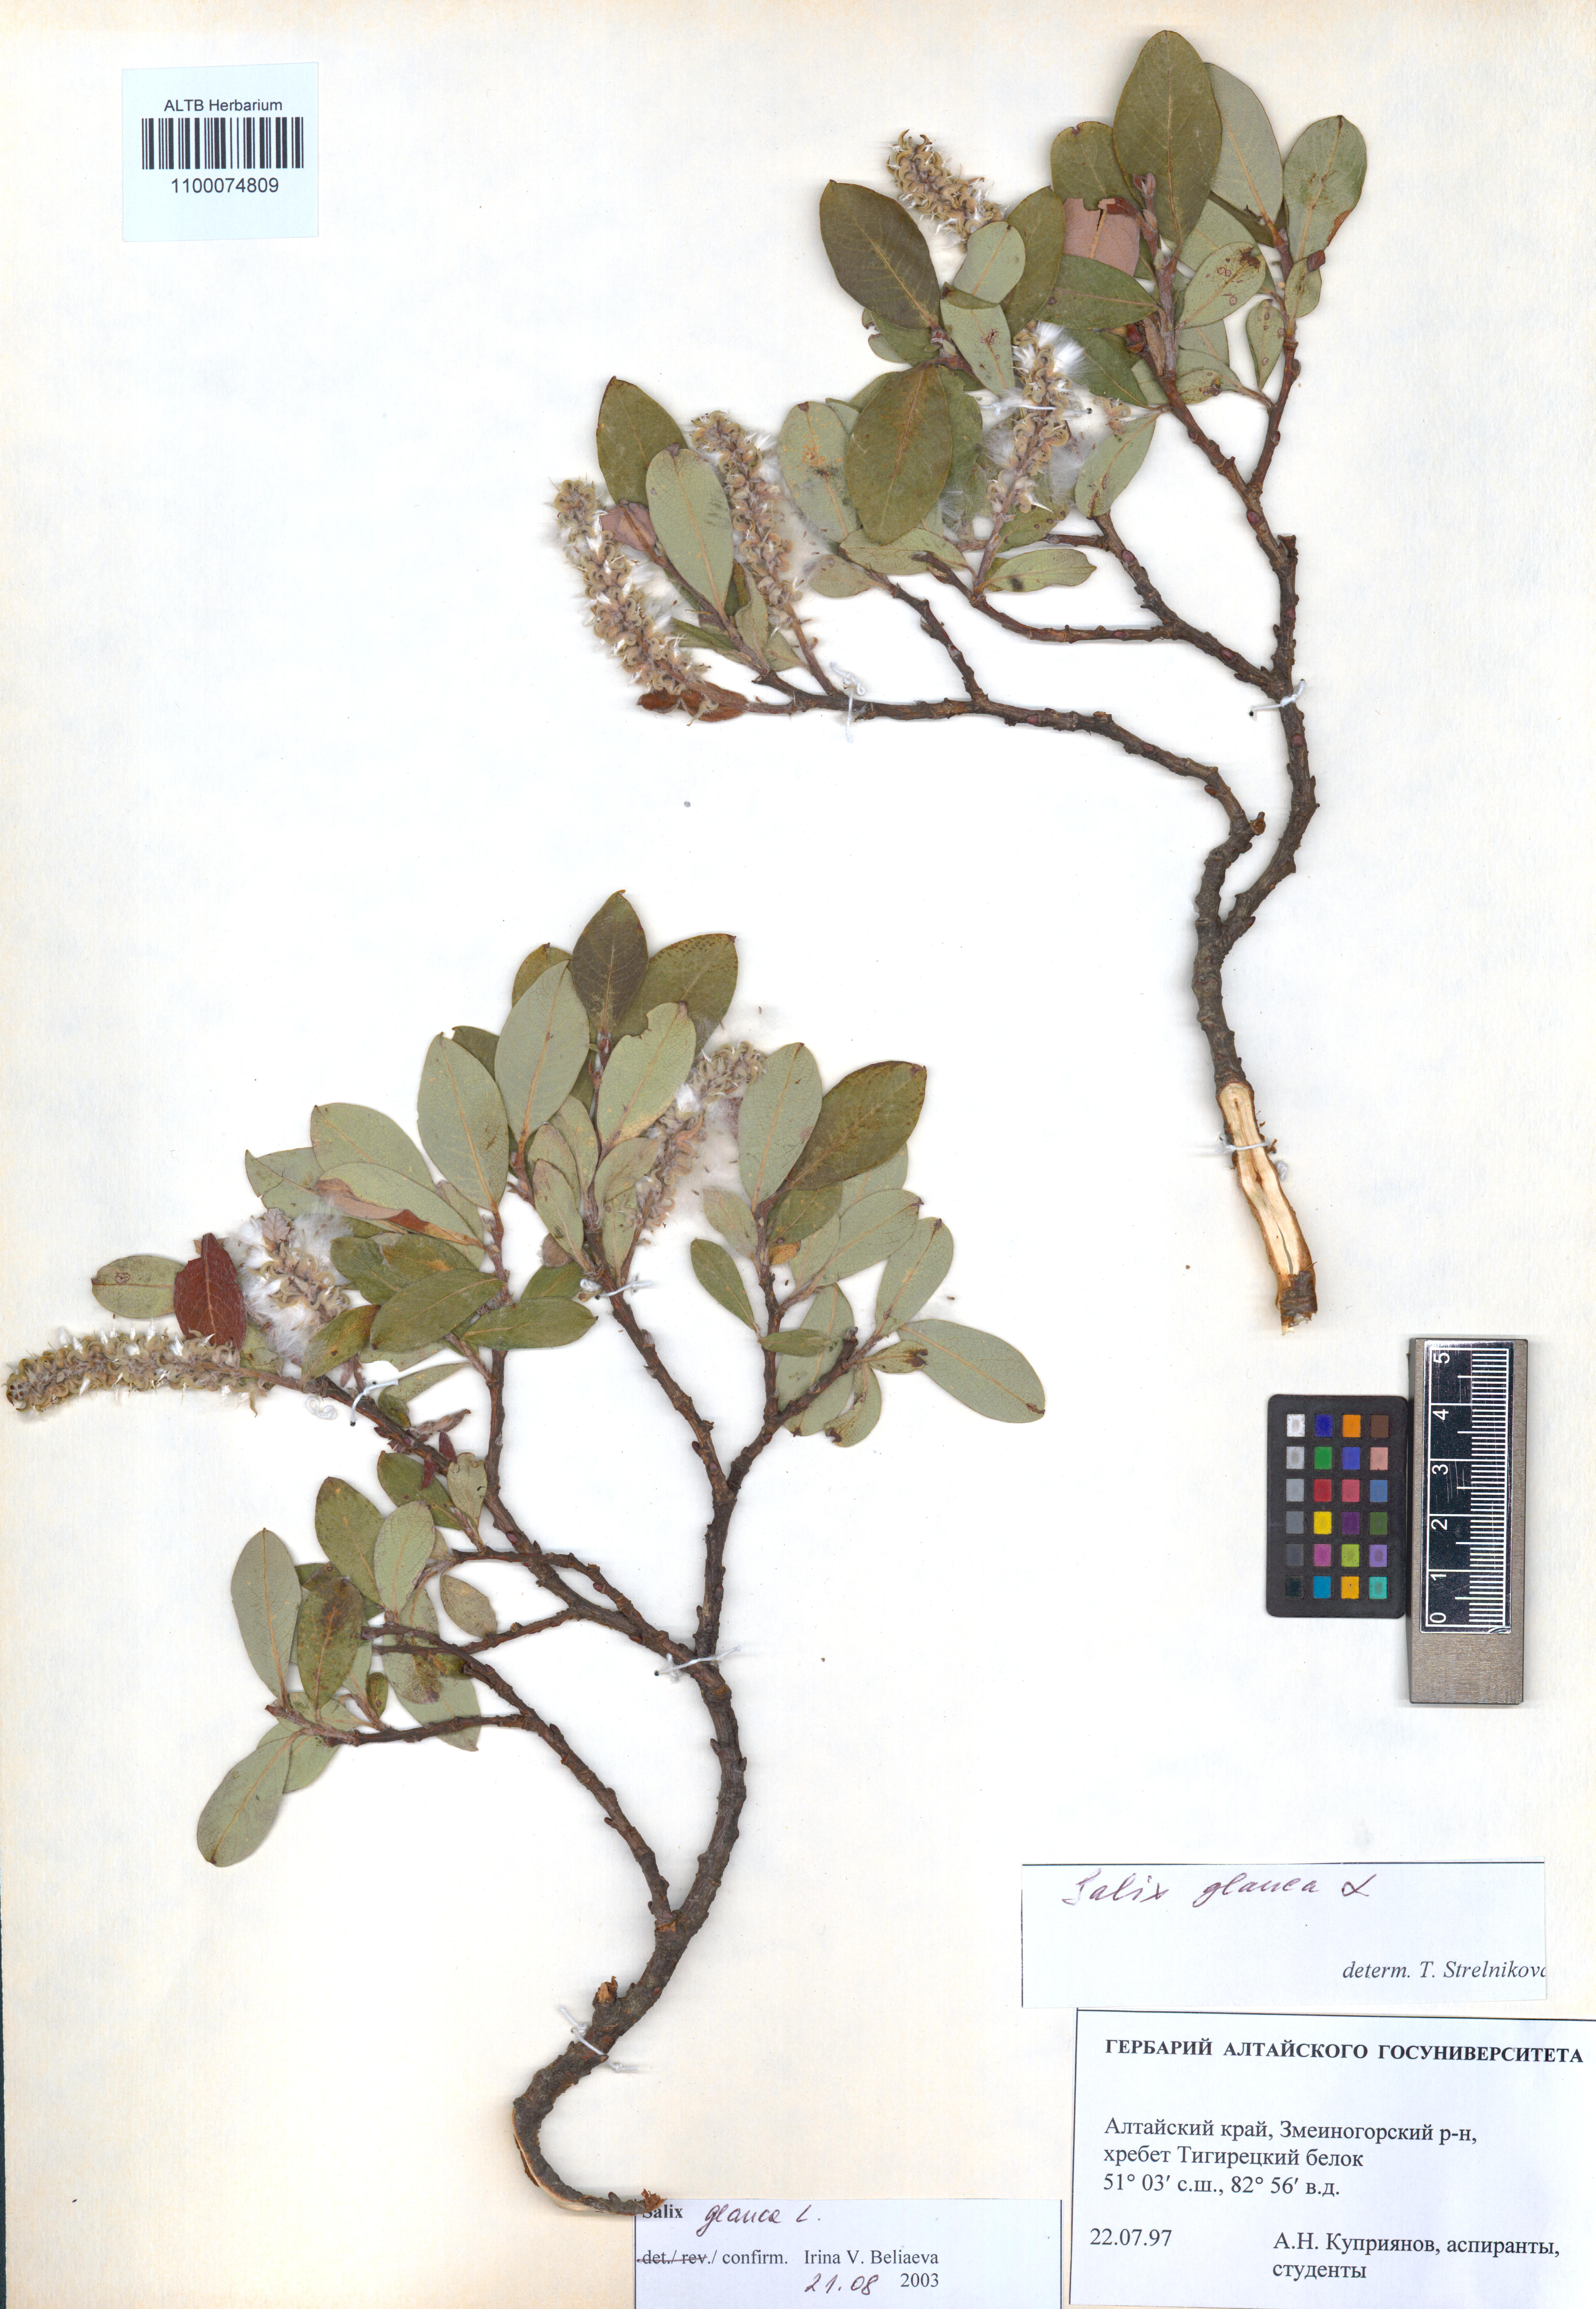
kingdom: Plantae
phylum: Tracheophyta
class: Magnoliopsida
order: Malpighiales
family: Salicaceae
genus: Salix
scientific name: Salix glauca
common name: Glaucous willow
